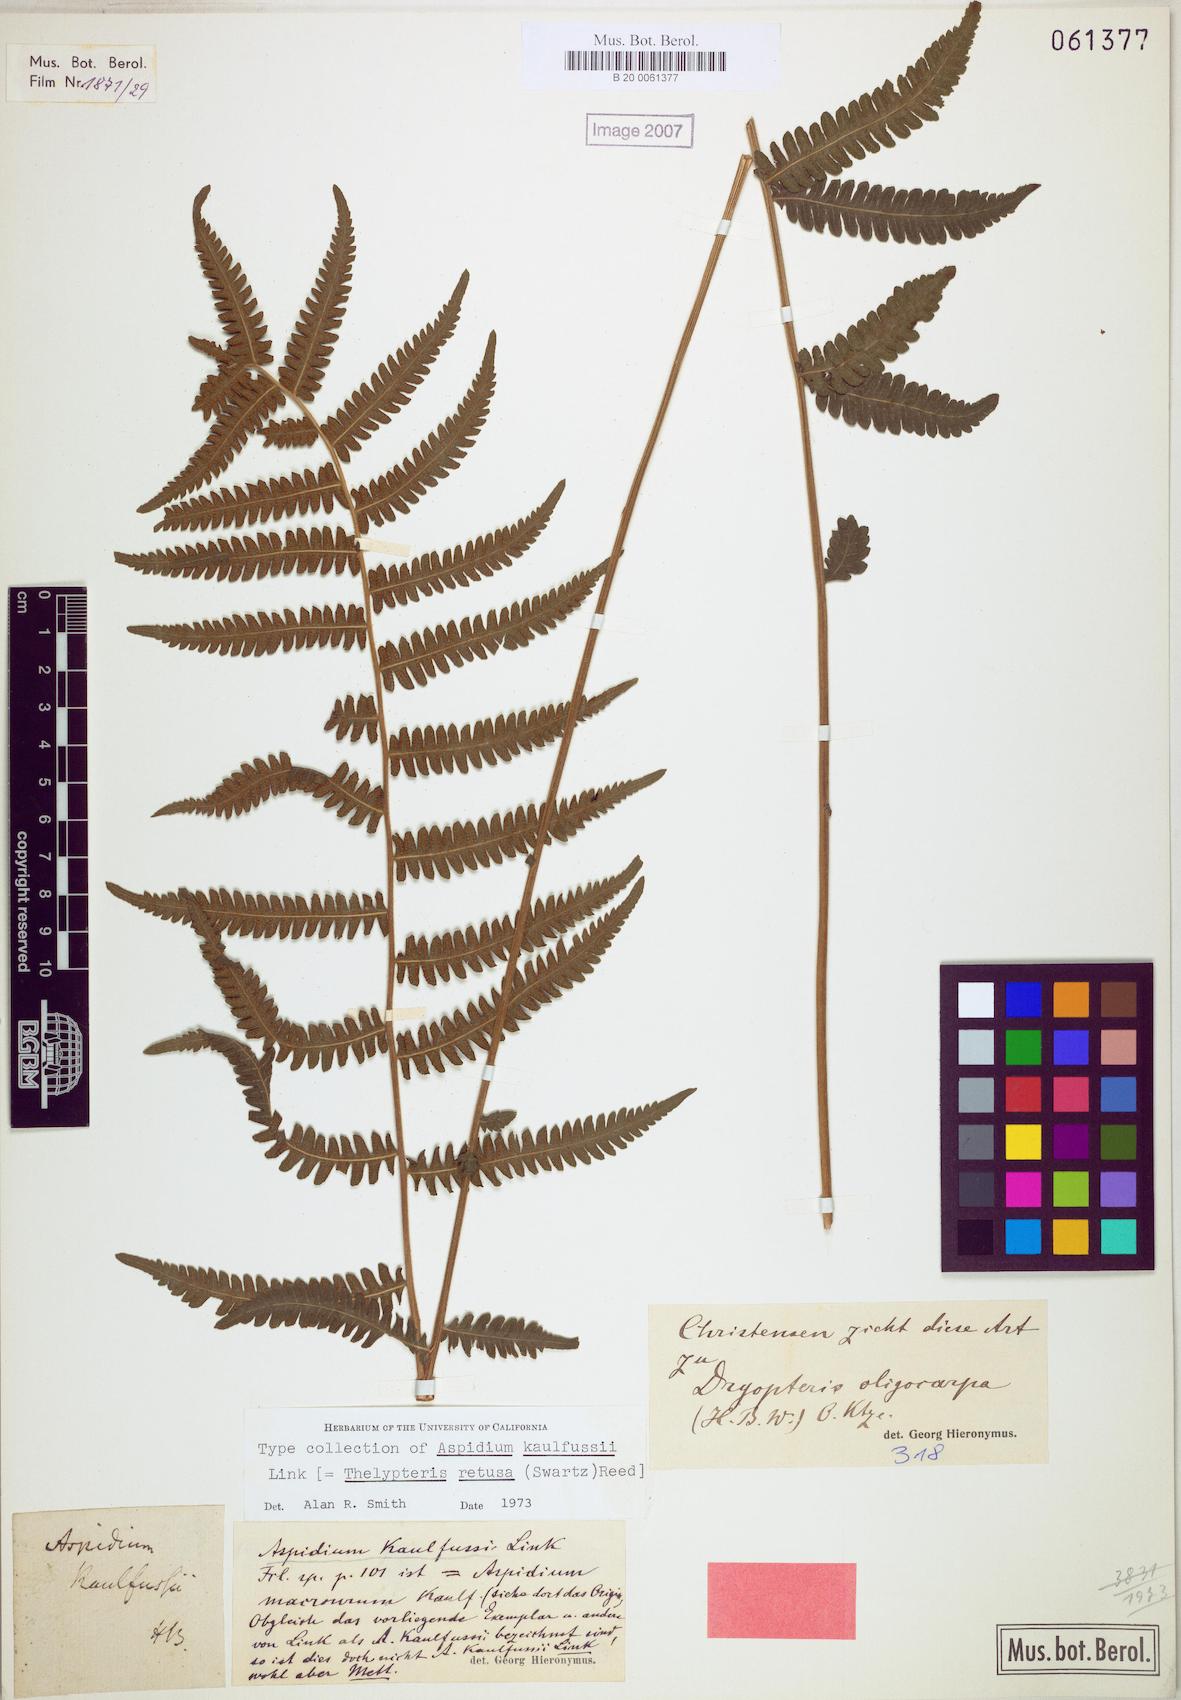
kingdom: Plantae
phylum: Tracheophyta
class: Polypodiopsida
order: Polypodiales
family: Thelypteridaceae
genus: Amauropelta
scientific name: Amauropelta raddii
